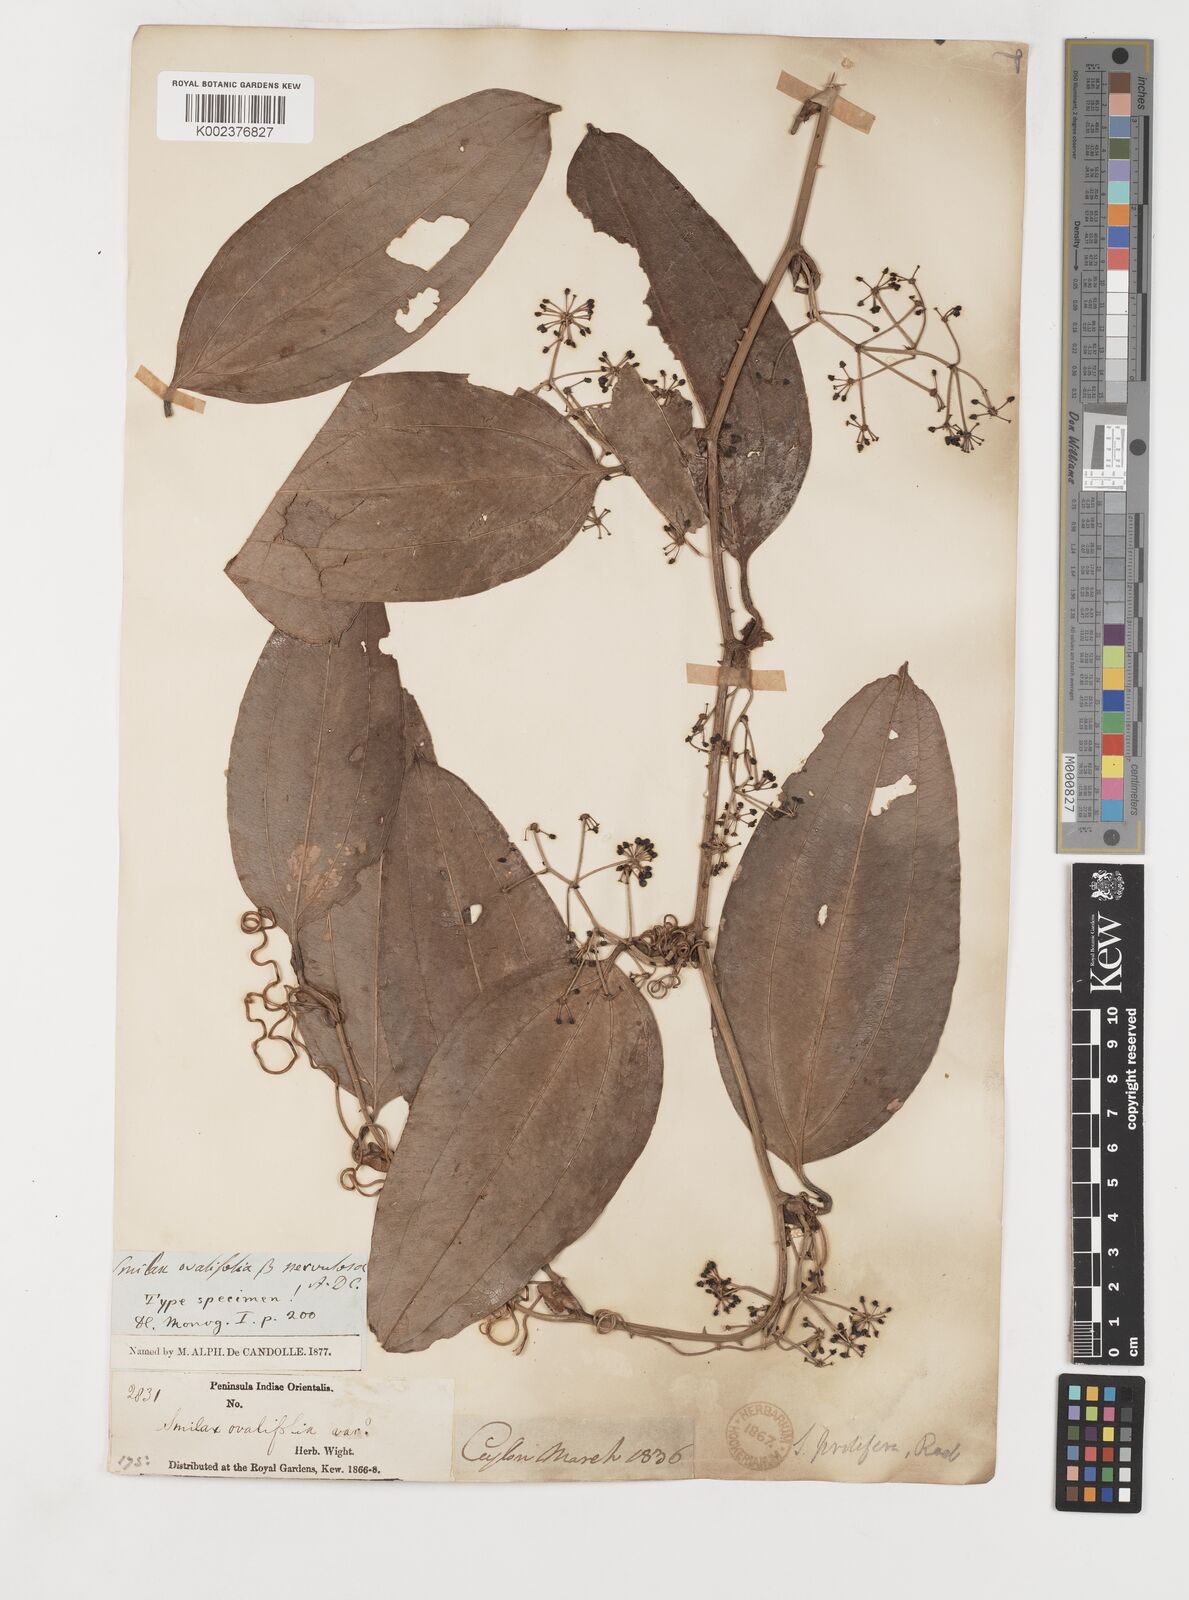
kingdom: Plantae
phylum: Tracheophyta
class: Liliopsida
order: Liliales
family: Smilacaceae
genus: Smilax
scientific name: Smilax prolifera
